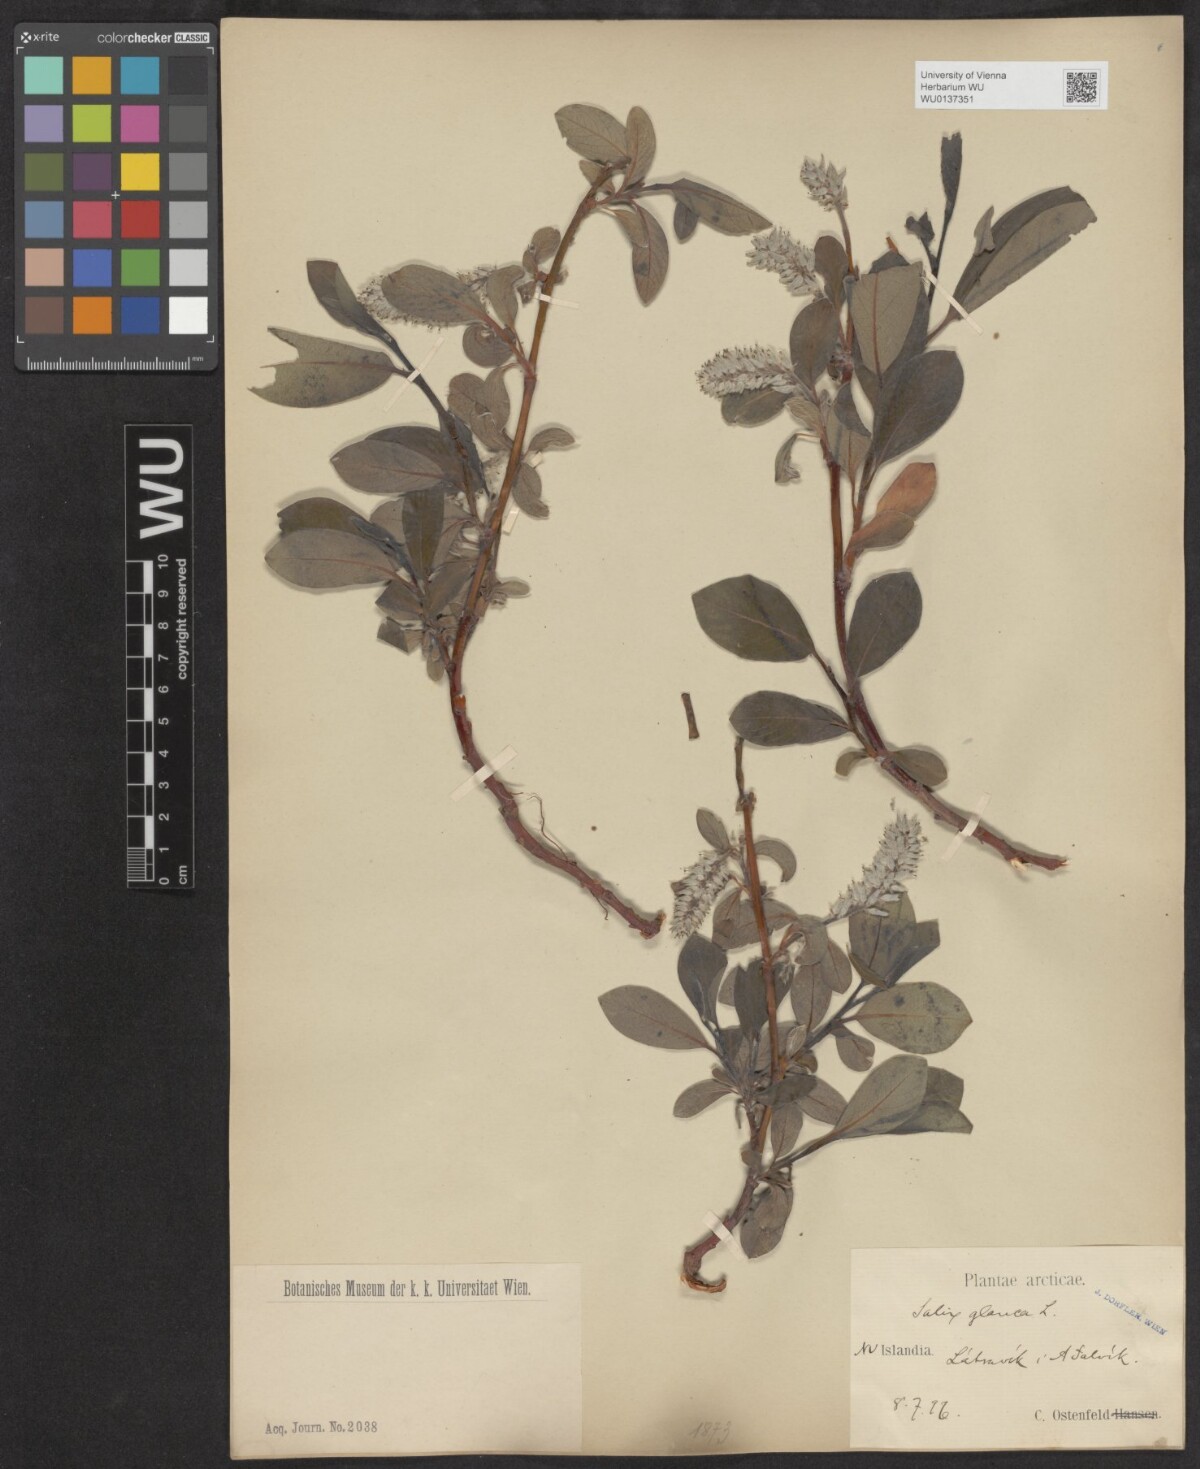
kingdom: Plantae
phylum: Tracheophyta
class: Magnoliopsida
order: Malpighiales
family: Salicaceae
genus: Salix
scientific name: Salix glauca
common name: Glaucous willow
